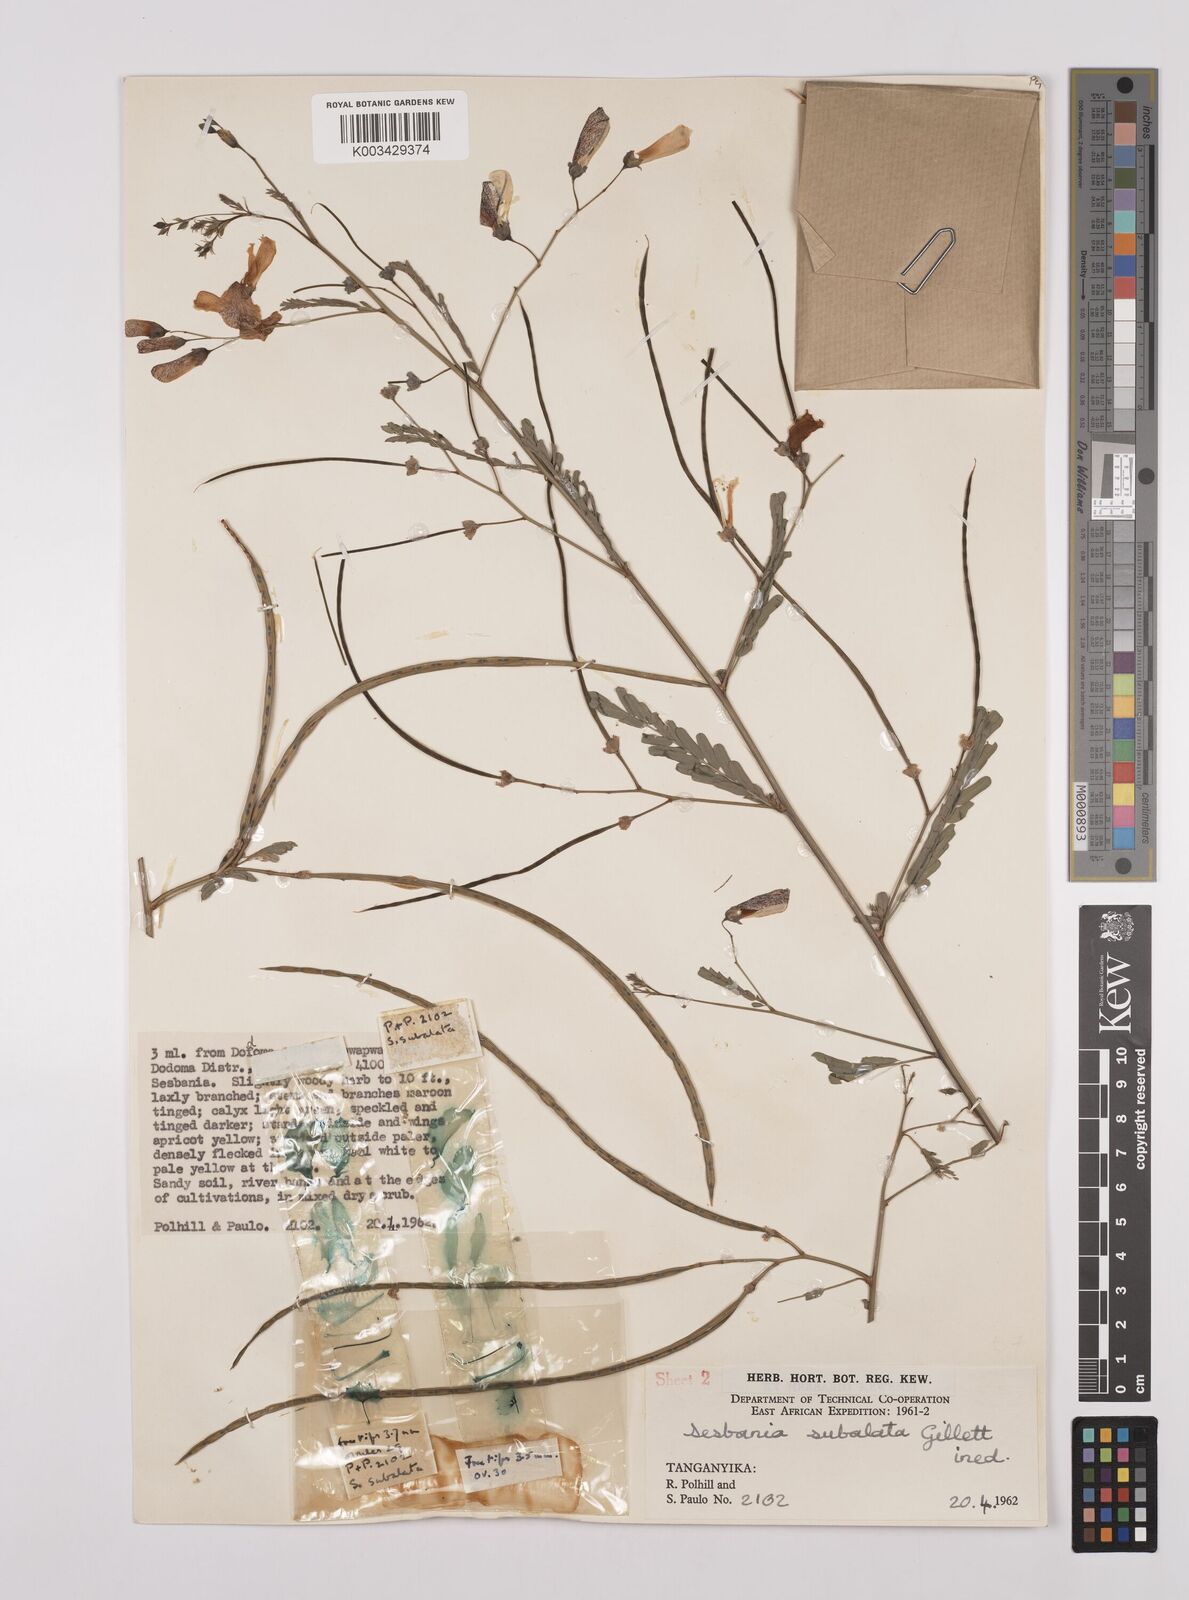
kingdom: Plantae
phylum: Tracheophyta
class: Magnoliopsida
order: Fabales
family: Fabaceae
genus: Sesbania
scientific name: Sesbania subalata
